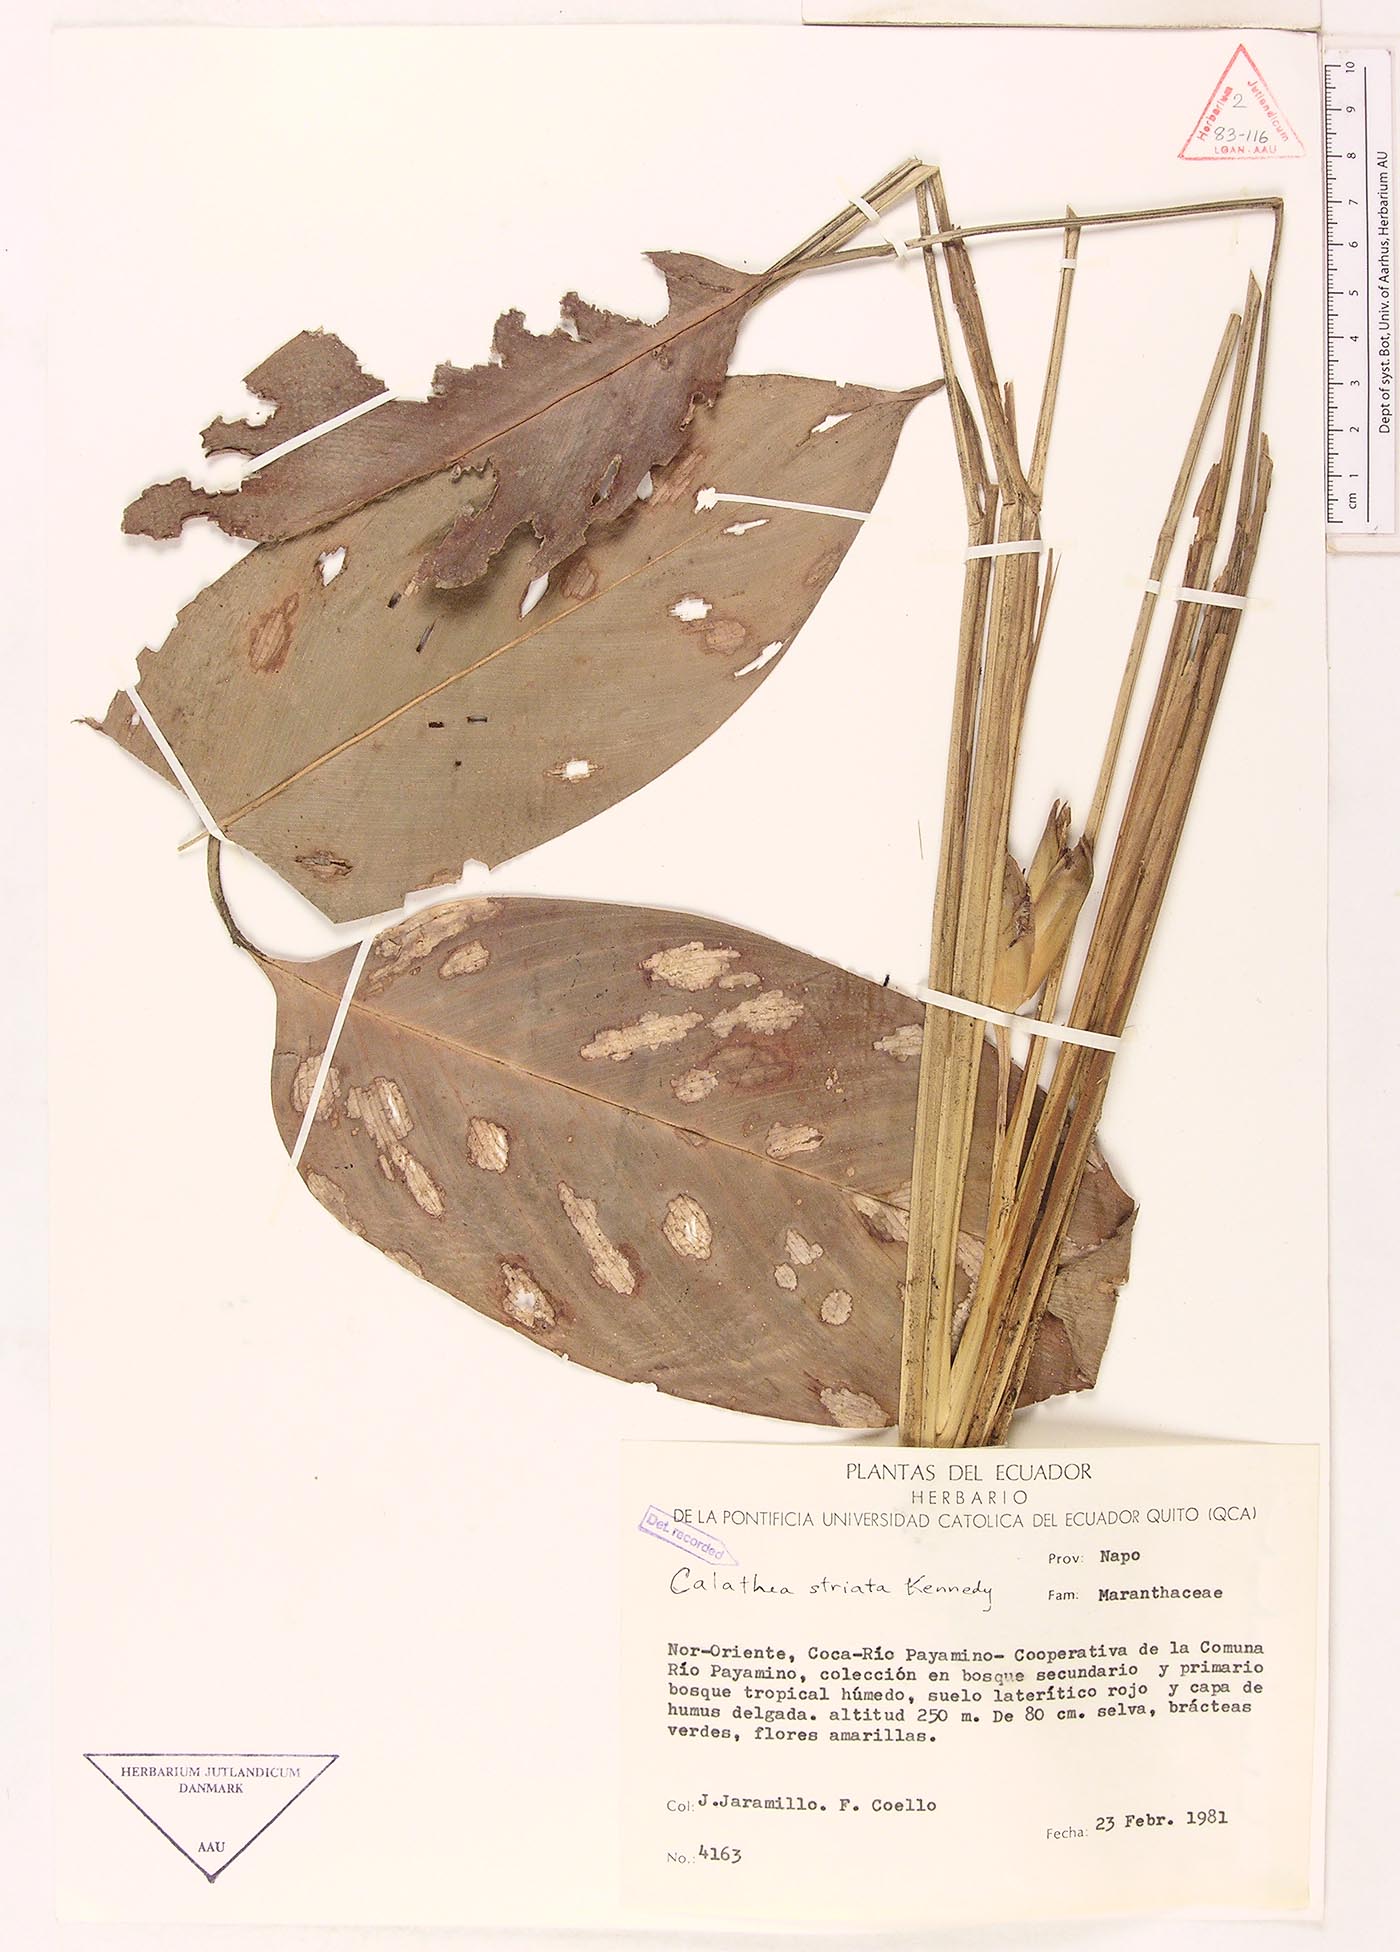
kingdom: Plantae
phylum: Tracheophyta
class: Liliopsida
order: Zingiberales
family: Marantaceae
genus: Calathea
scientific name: Calathea striata
